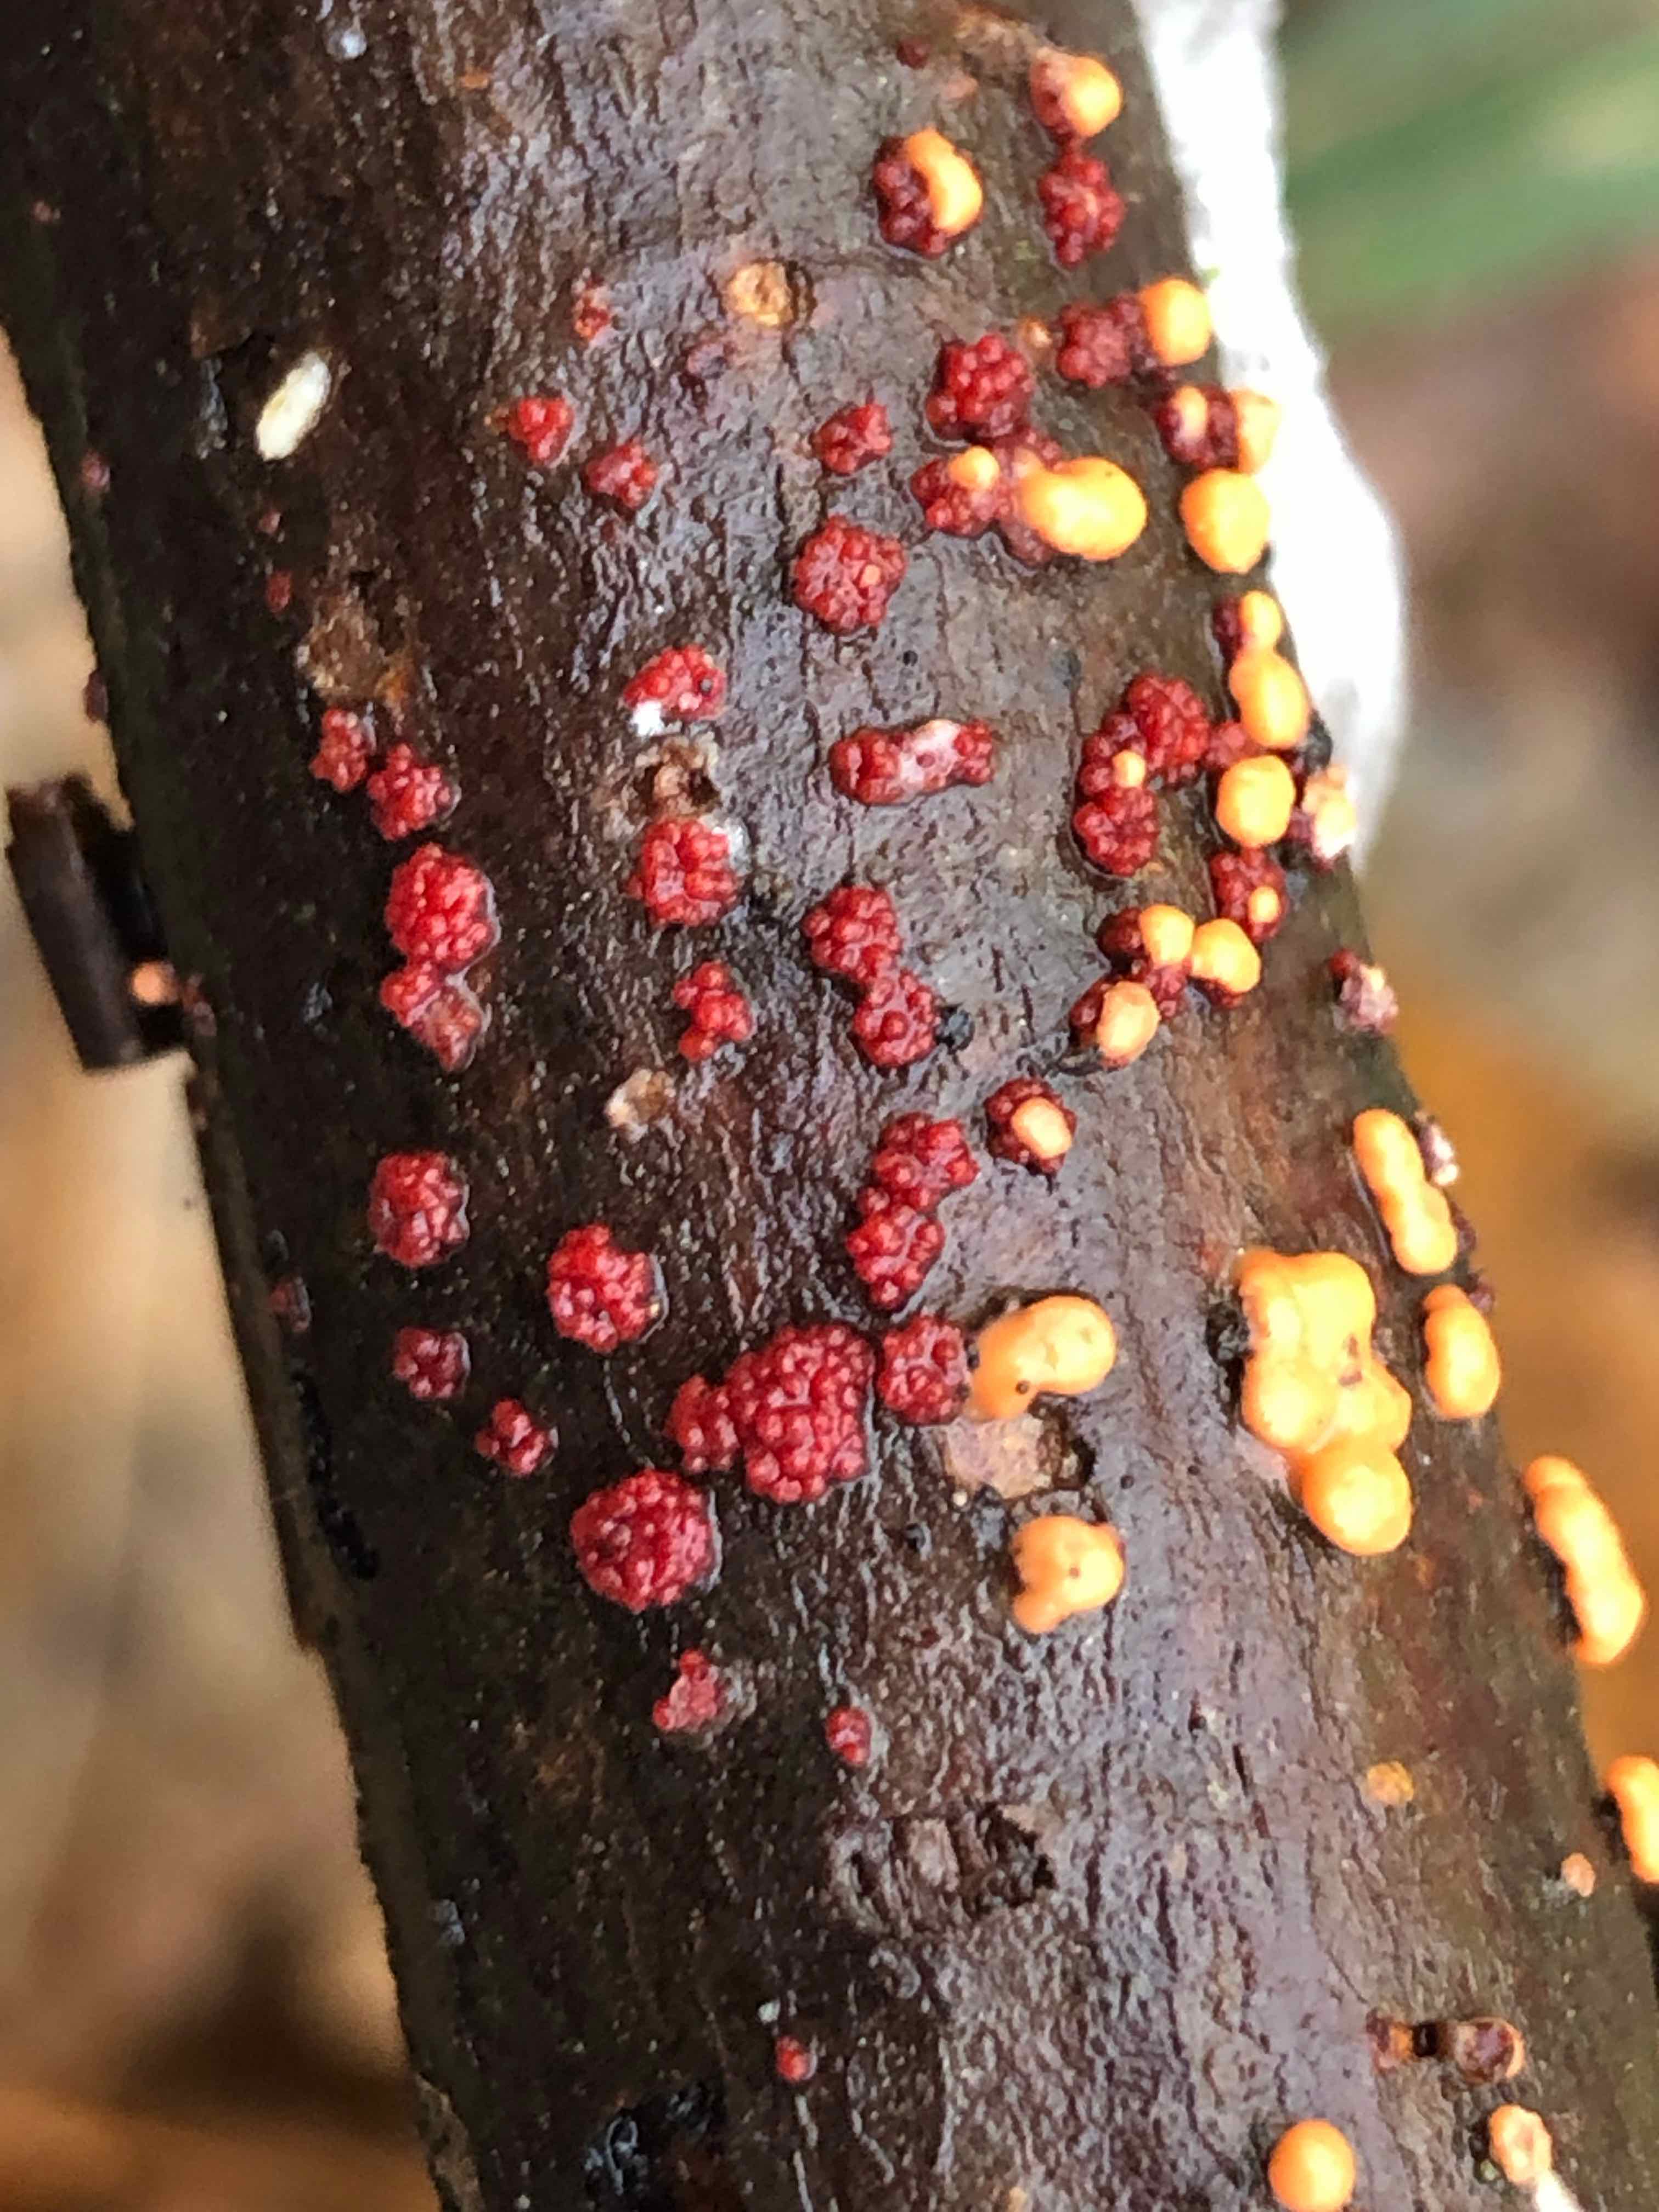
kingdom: Fungi
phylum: Ascomycota
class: Sordariomycetes
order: Hypocreales
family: Nectriaceae
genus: Nectria
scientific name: Nectria cinnabarina
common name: almindelig cinnobersvamp
